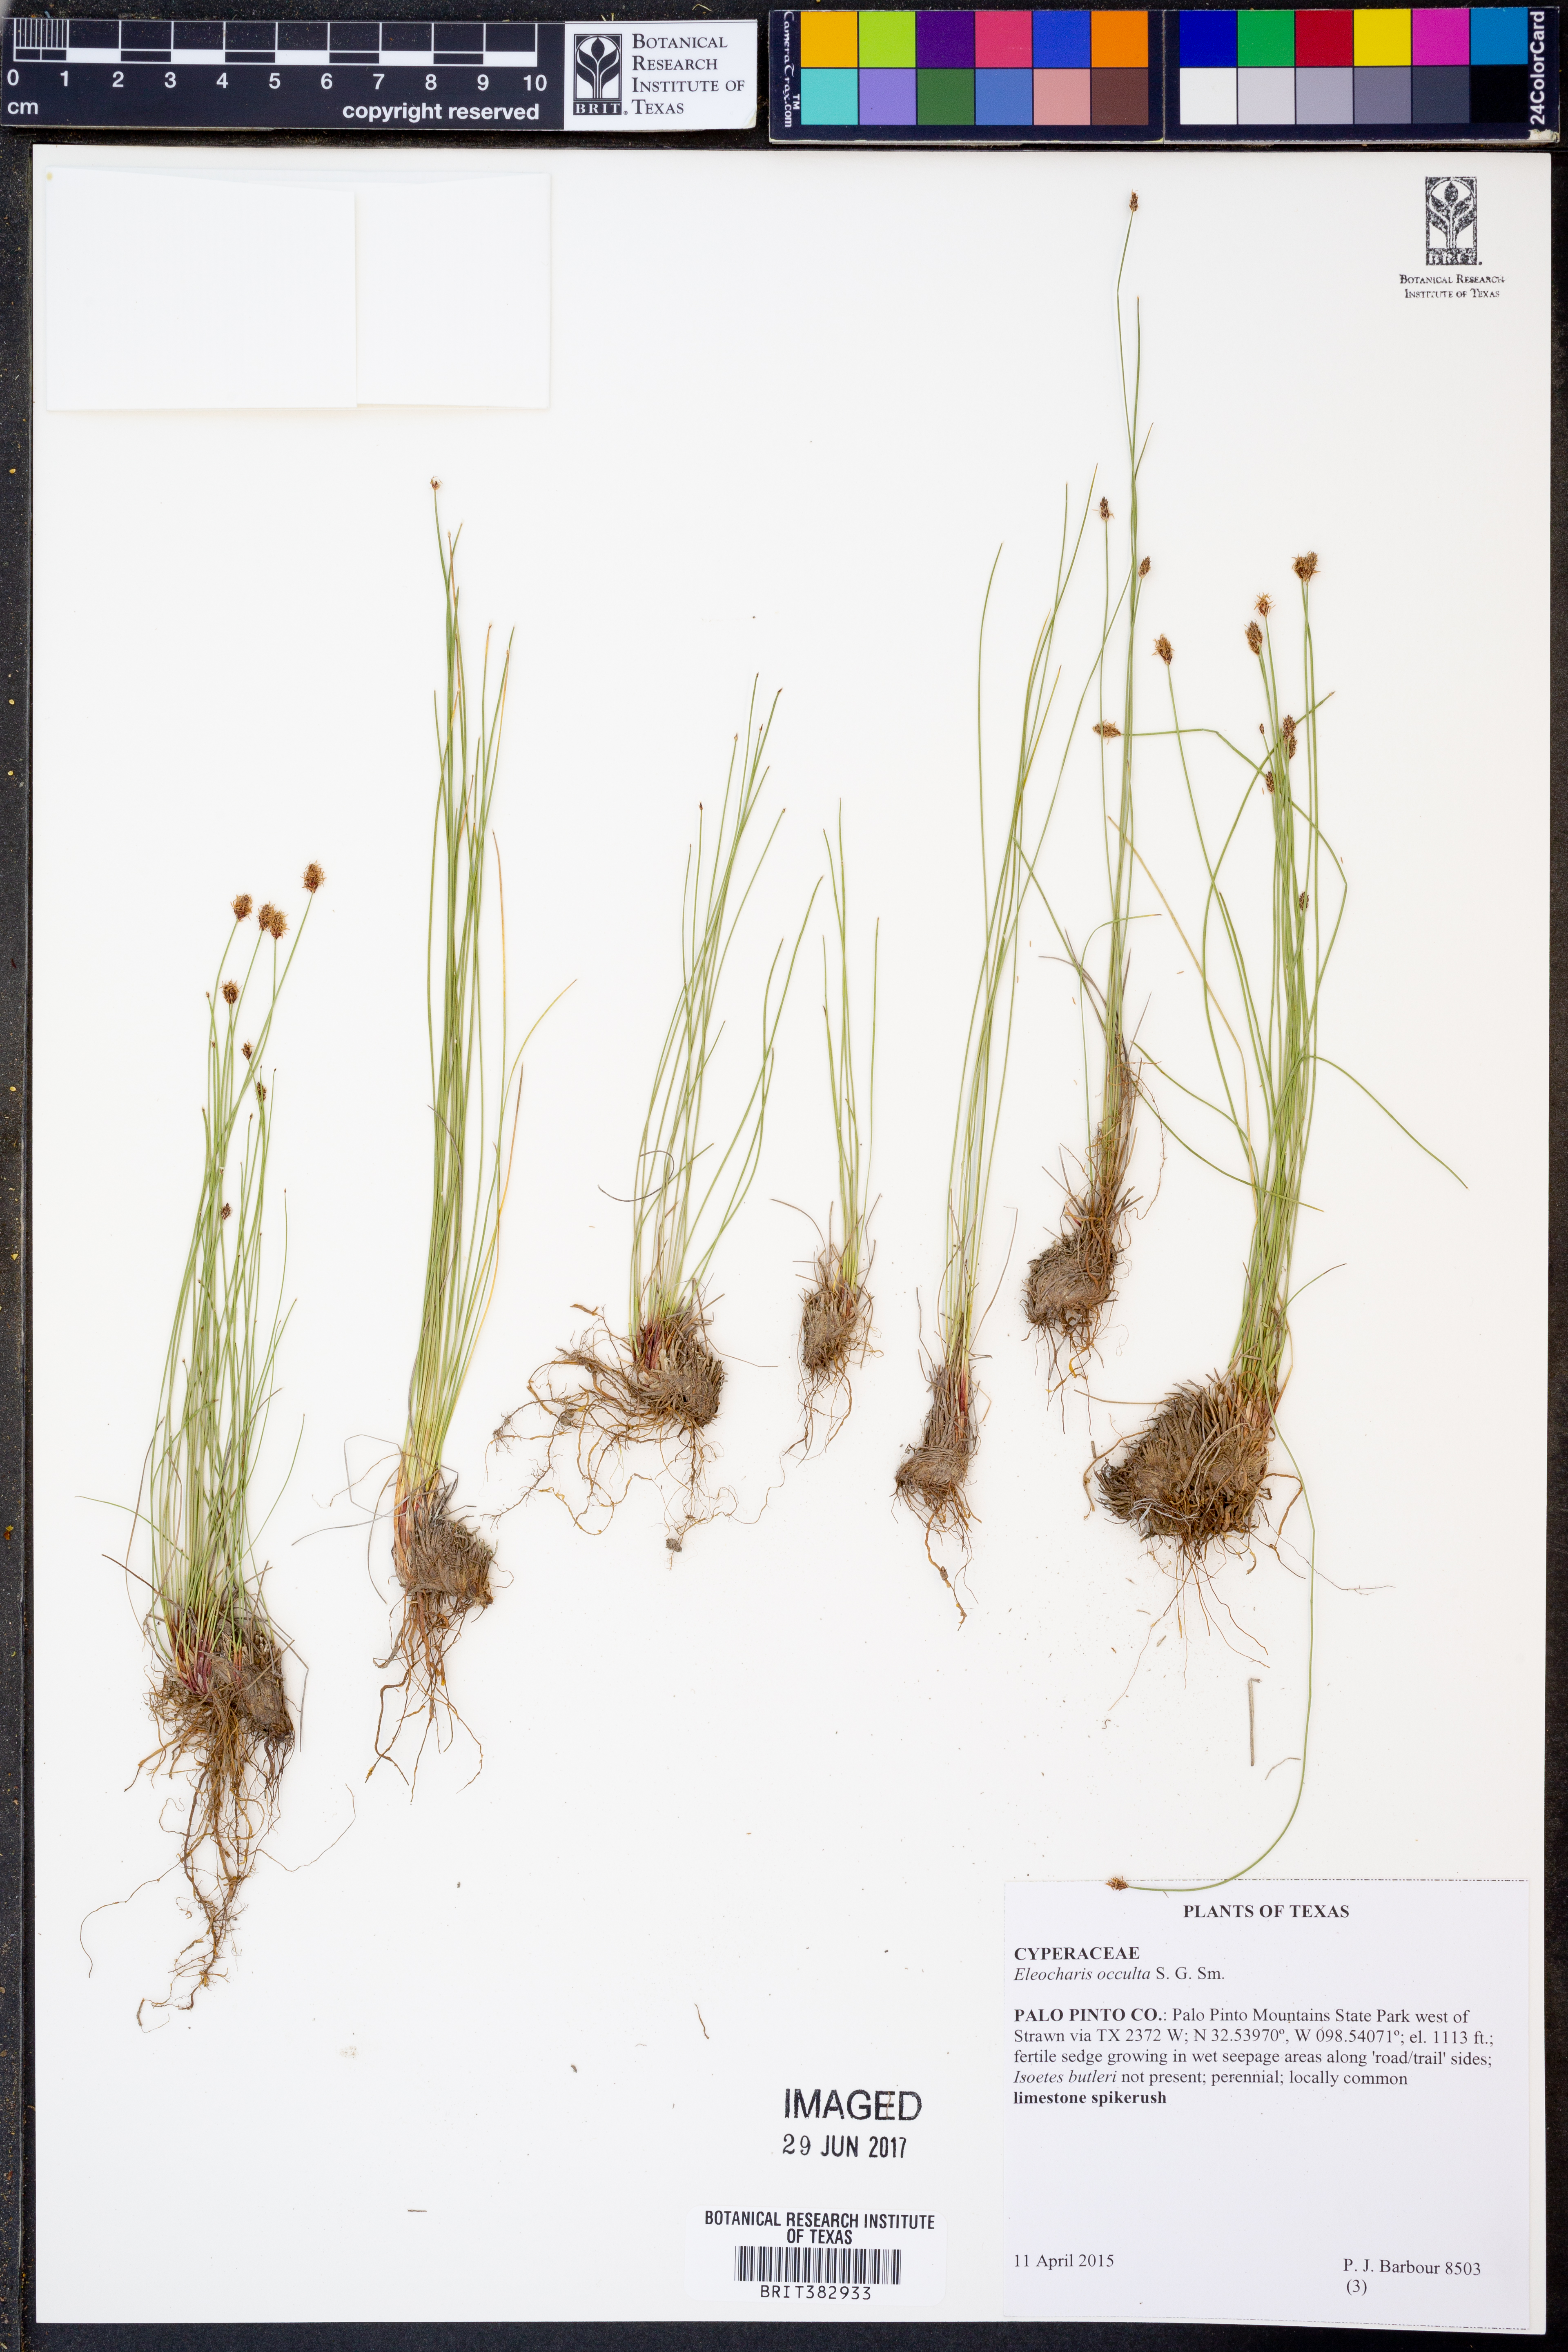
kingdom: Plantae
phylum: Tracheophyta
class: Liliopsida
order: Poales
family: Cyperaceae
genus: Eleocharis
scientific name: Eleocharis occulta
